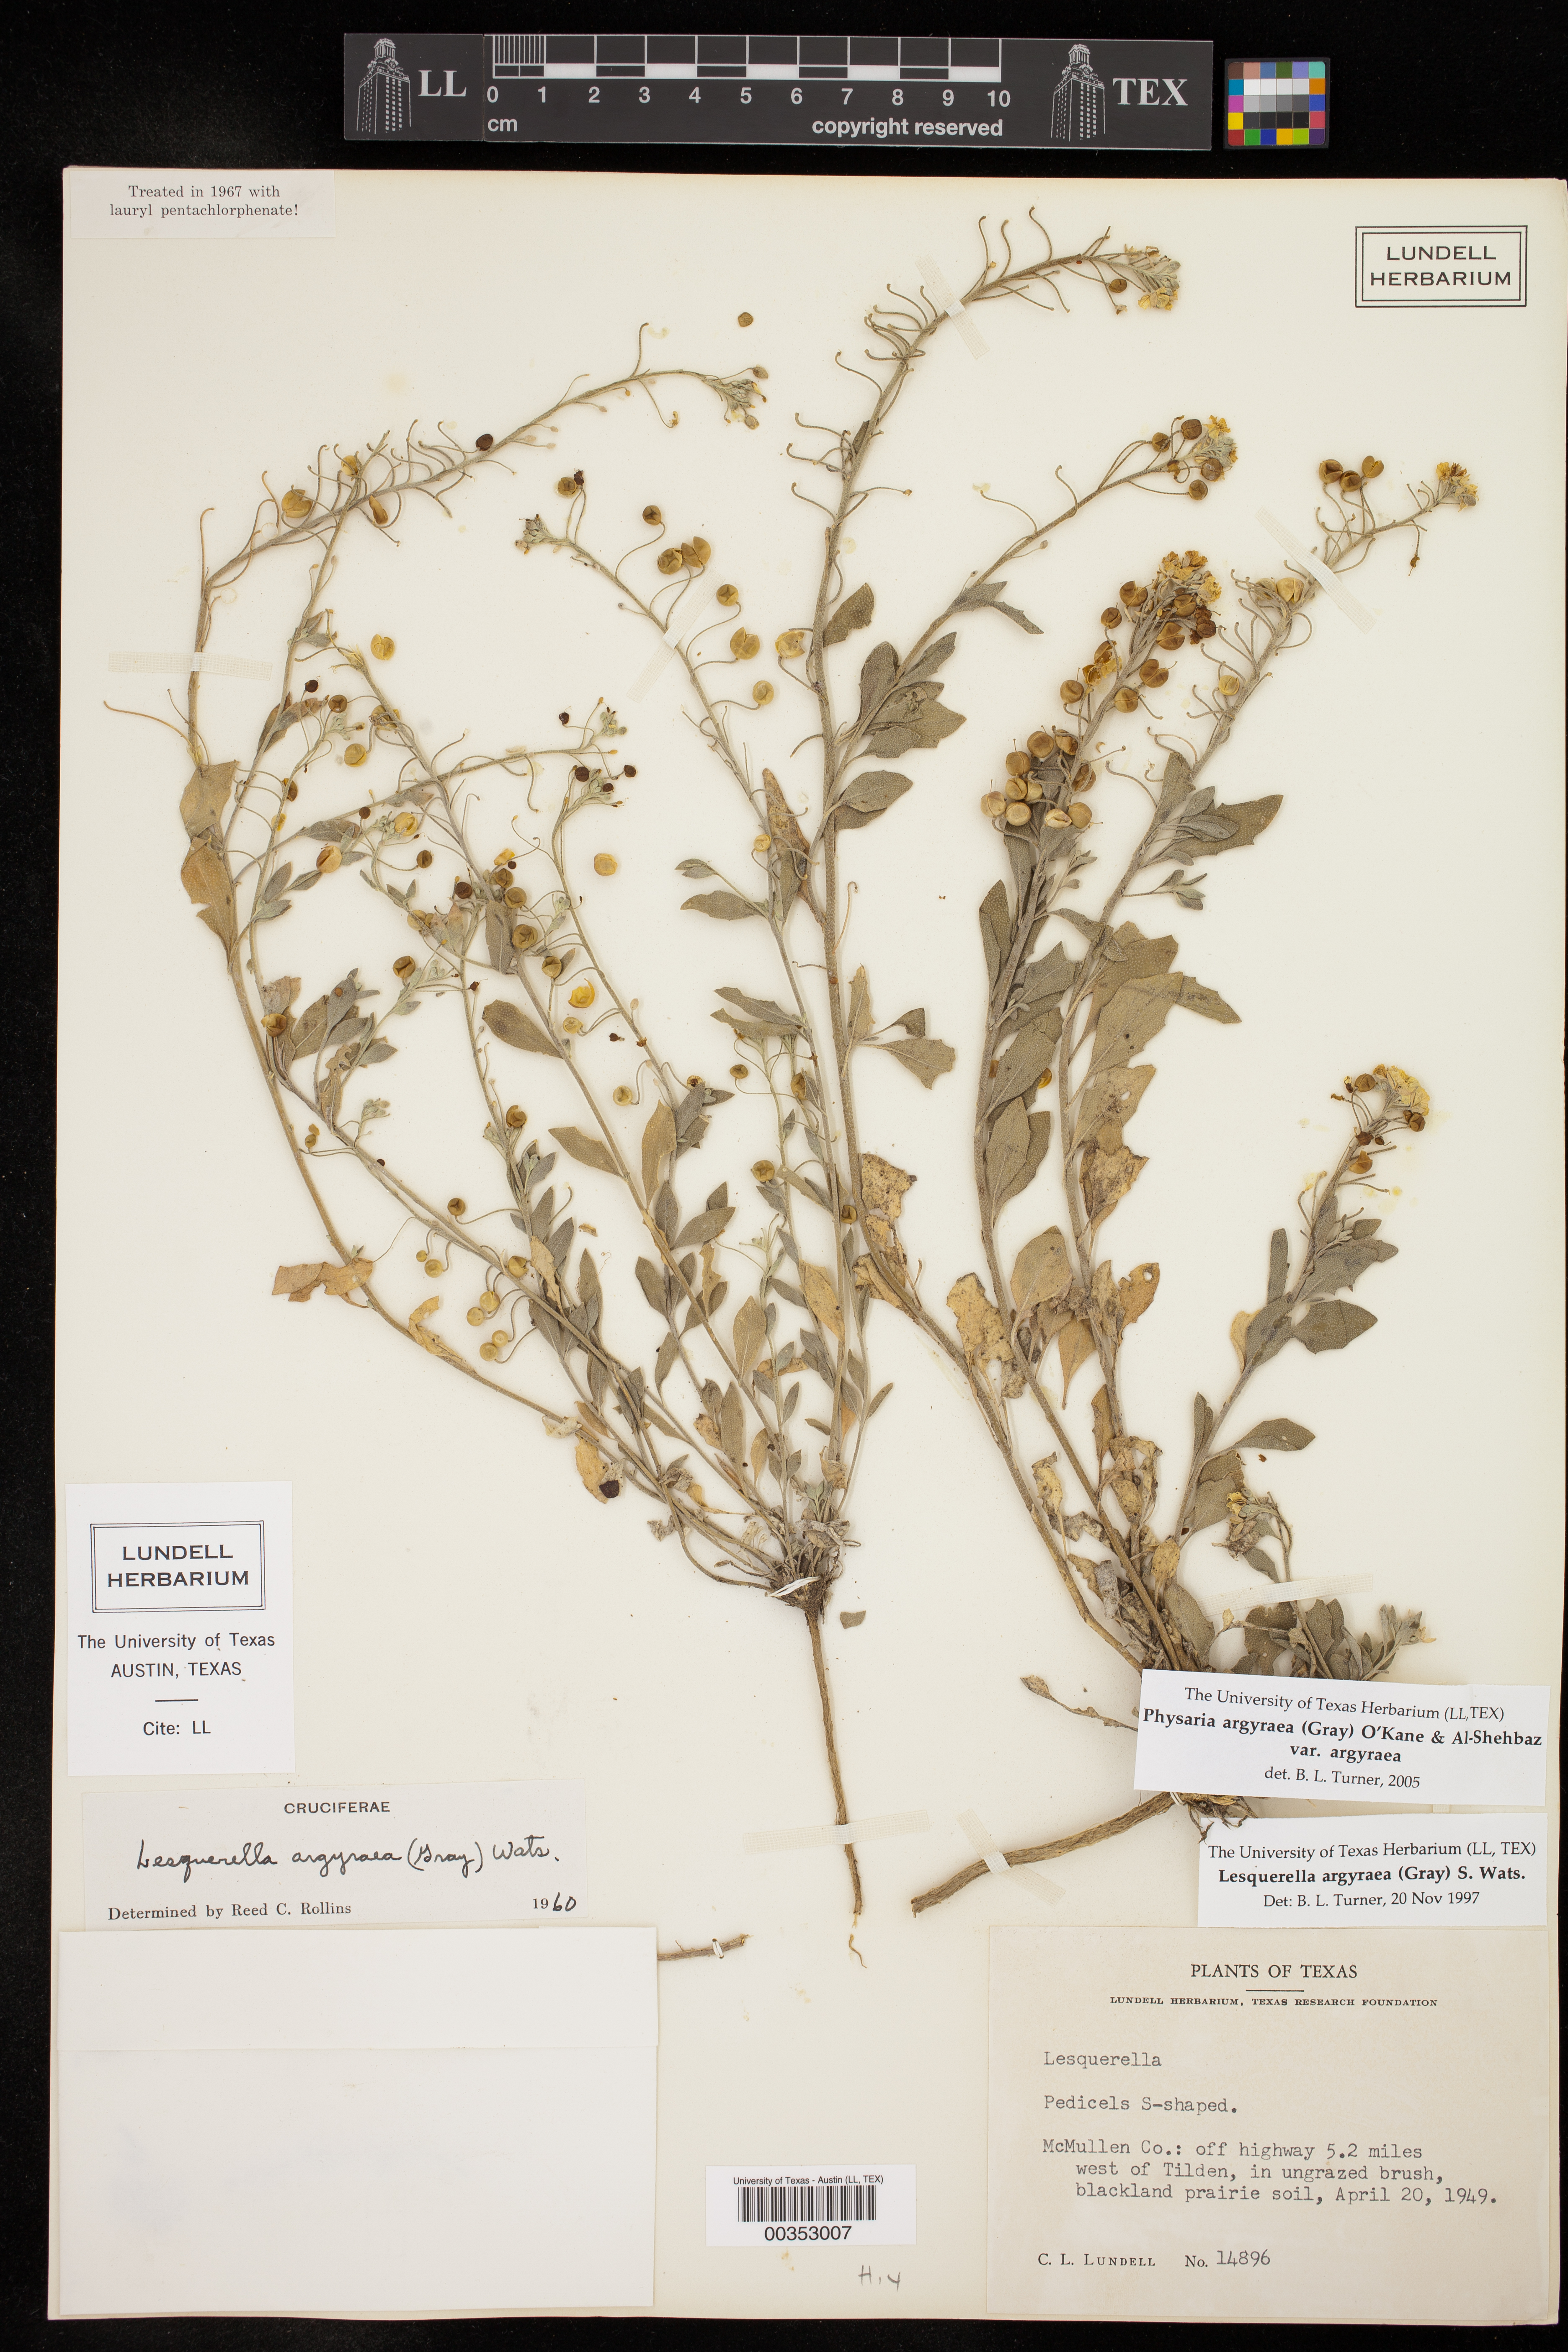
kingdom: Plantae
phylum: Tracheophyta
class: Magnoliopsida
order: Brassicales
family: Brassicaceae
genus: Physaria
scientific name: Physaria argyraea
